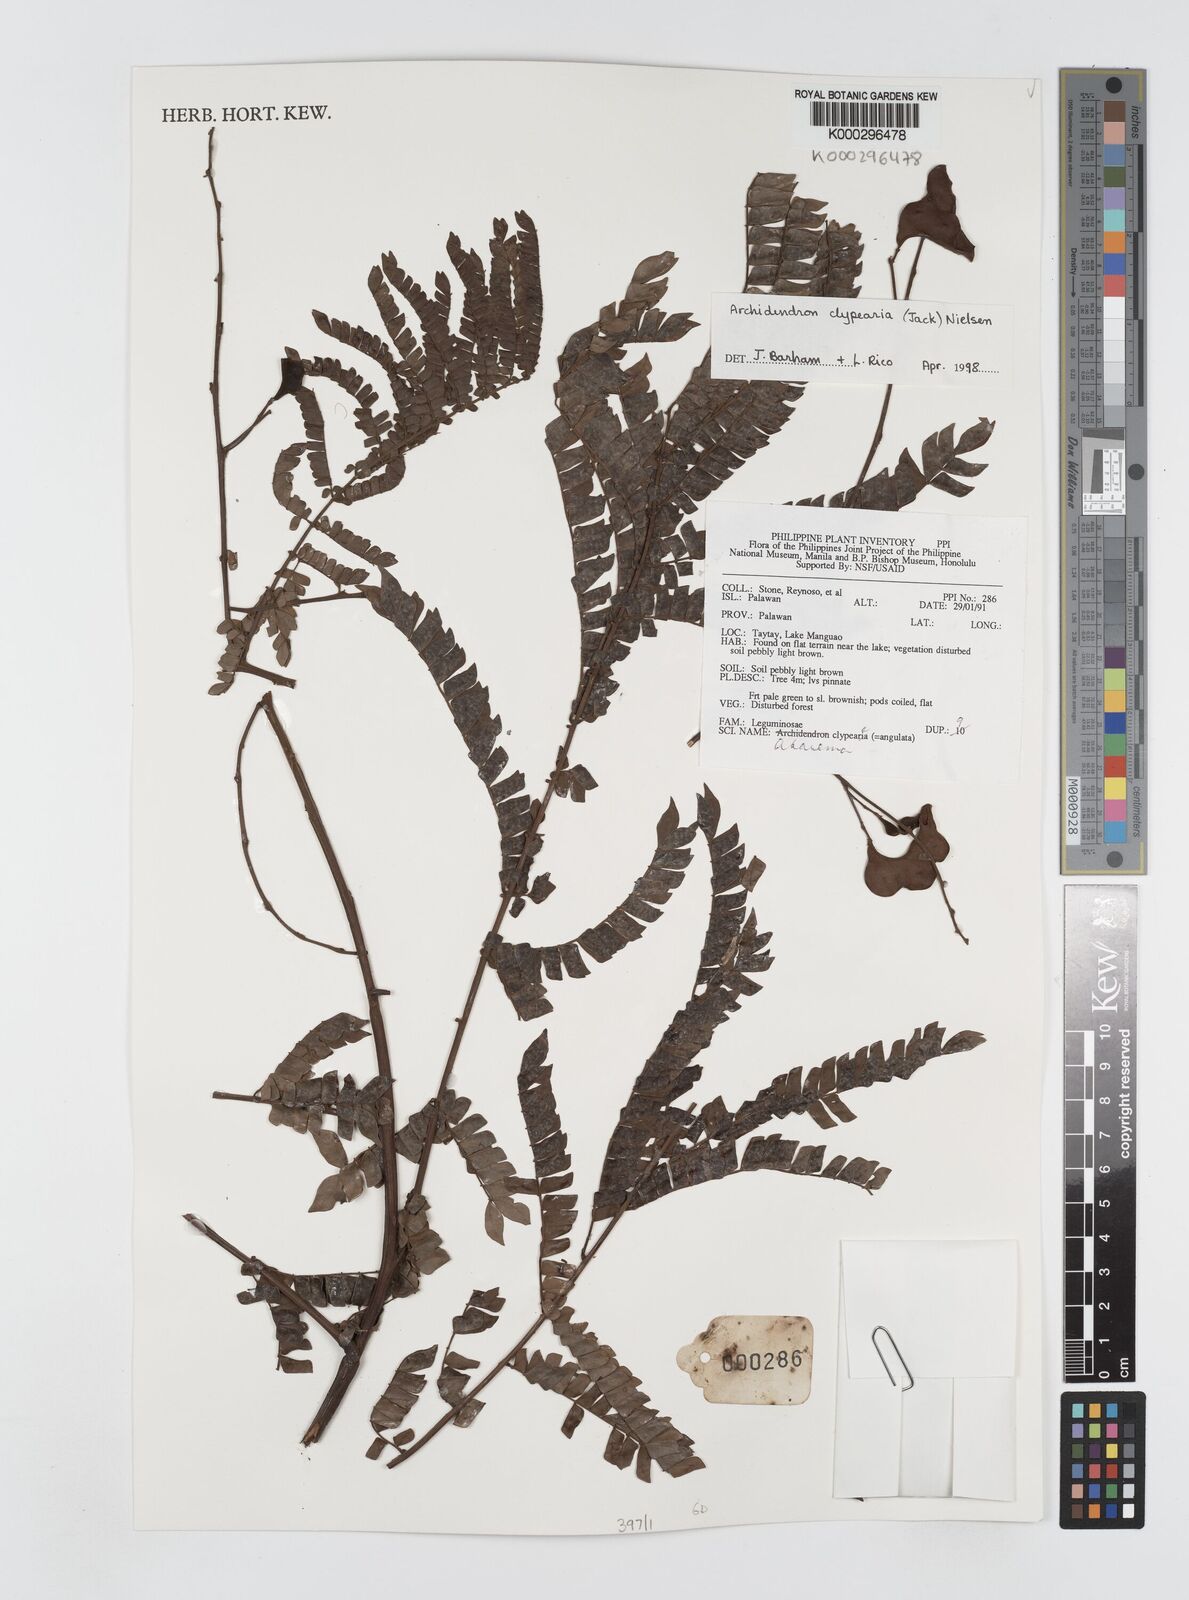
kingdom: Plantae
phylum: Tracheophyta
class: Magnoliopsida
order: Fabales
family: Fabaceae
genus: Archidendron
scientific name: Archidendron clypearia
